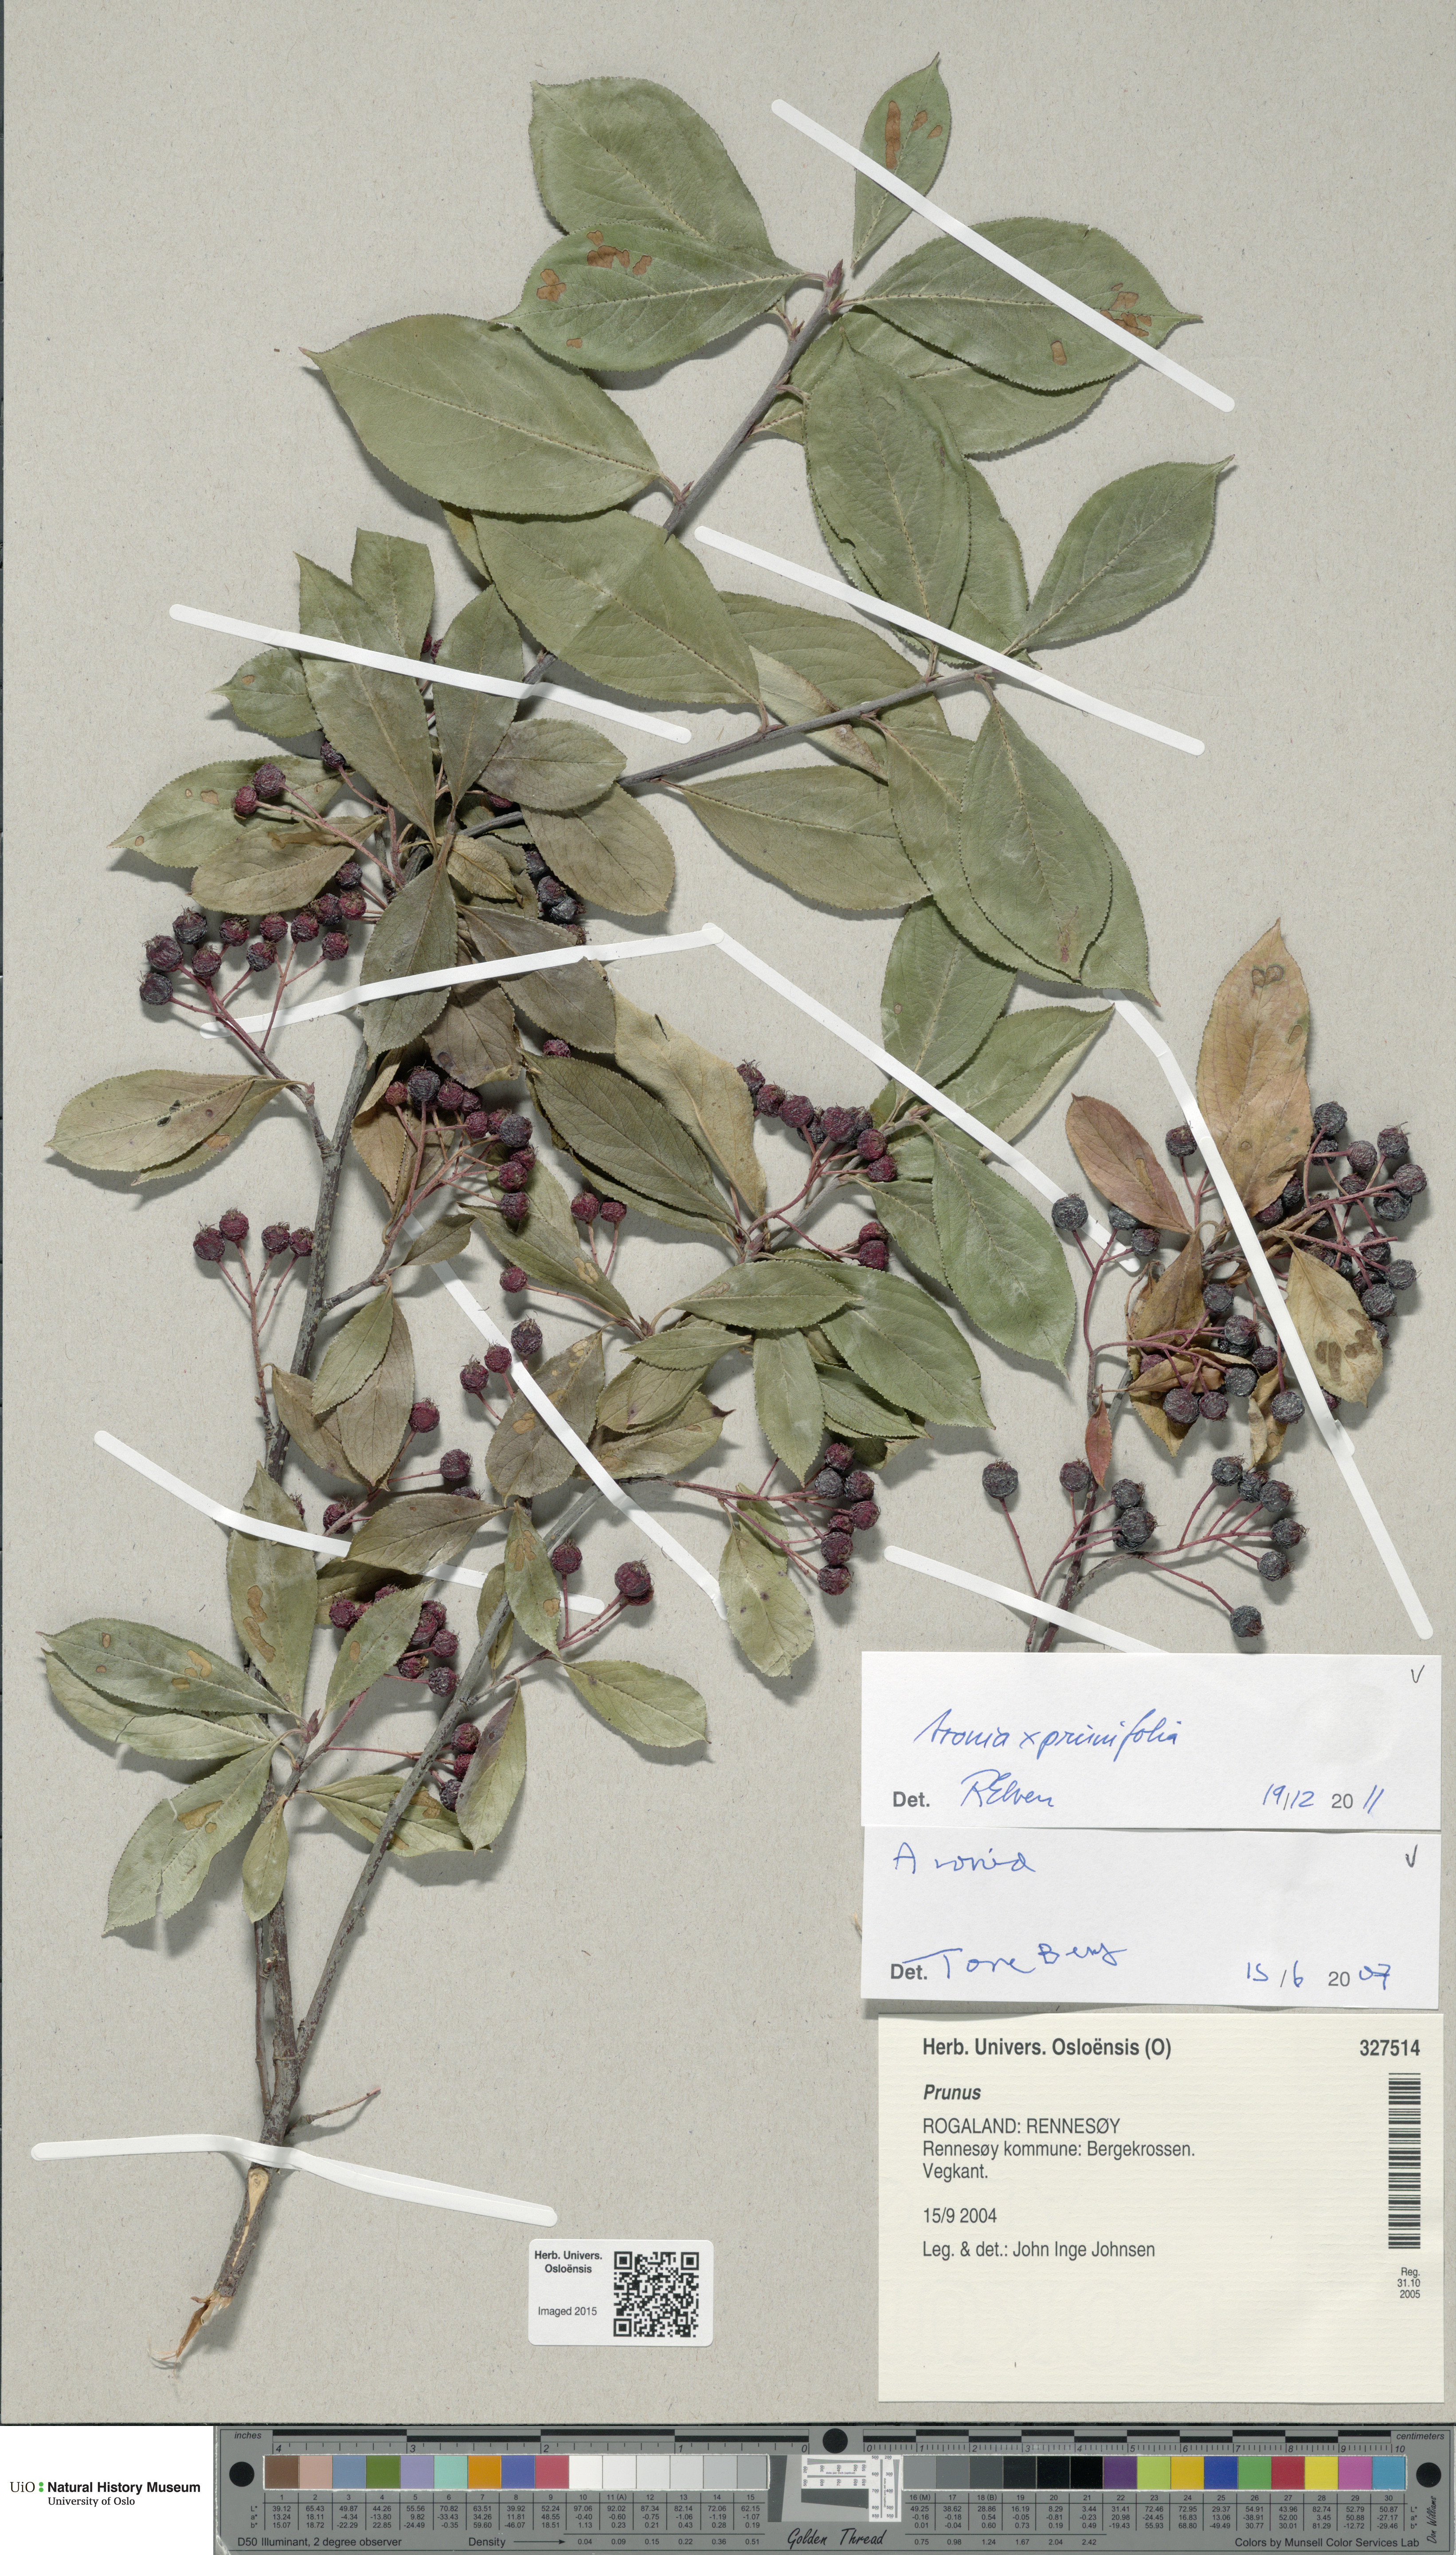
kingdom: Plantae
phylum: Tracheophyta
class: Magnoliopsida
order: Rosales
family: Rosaceae
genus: Aronia
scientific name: Aronia melanocarpa
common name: Black chokeberry
